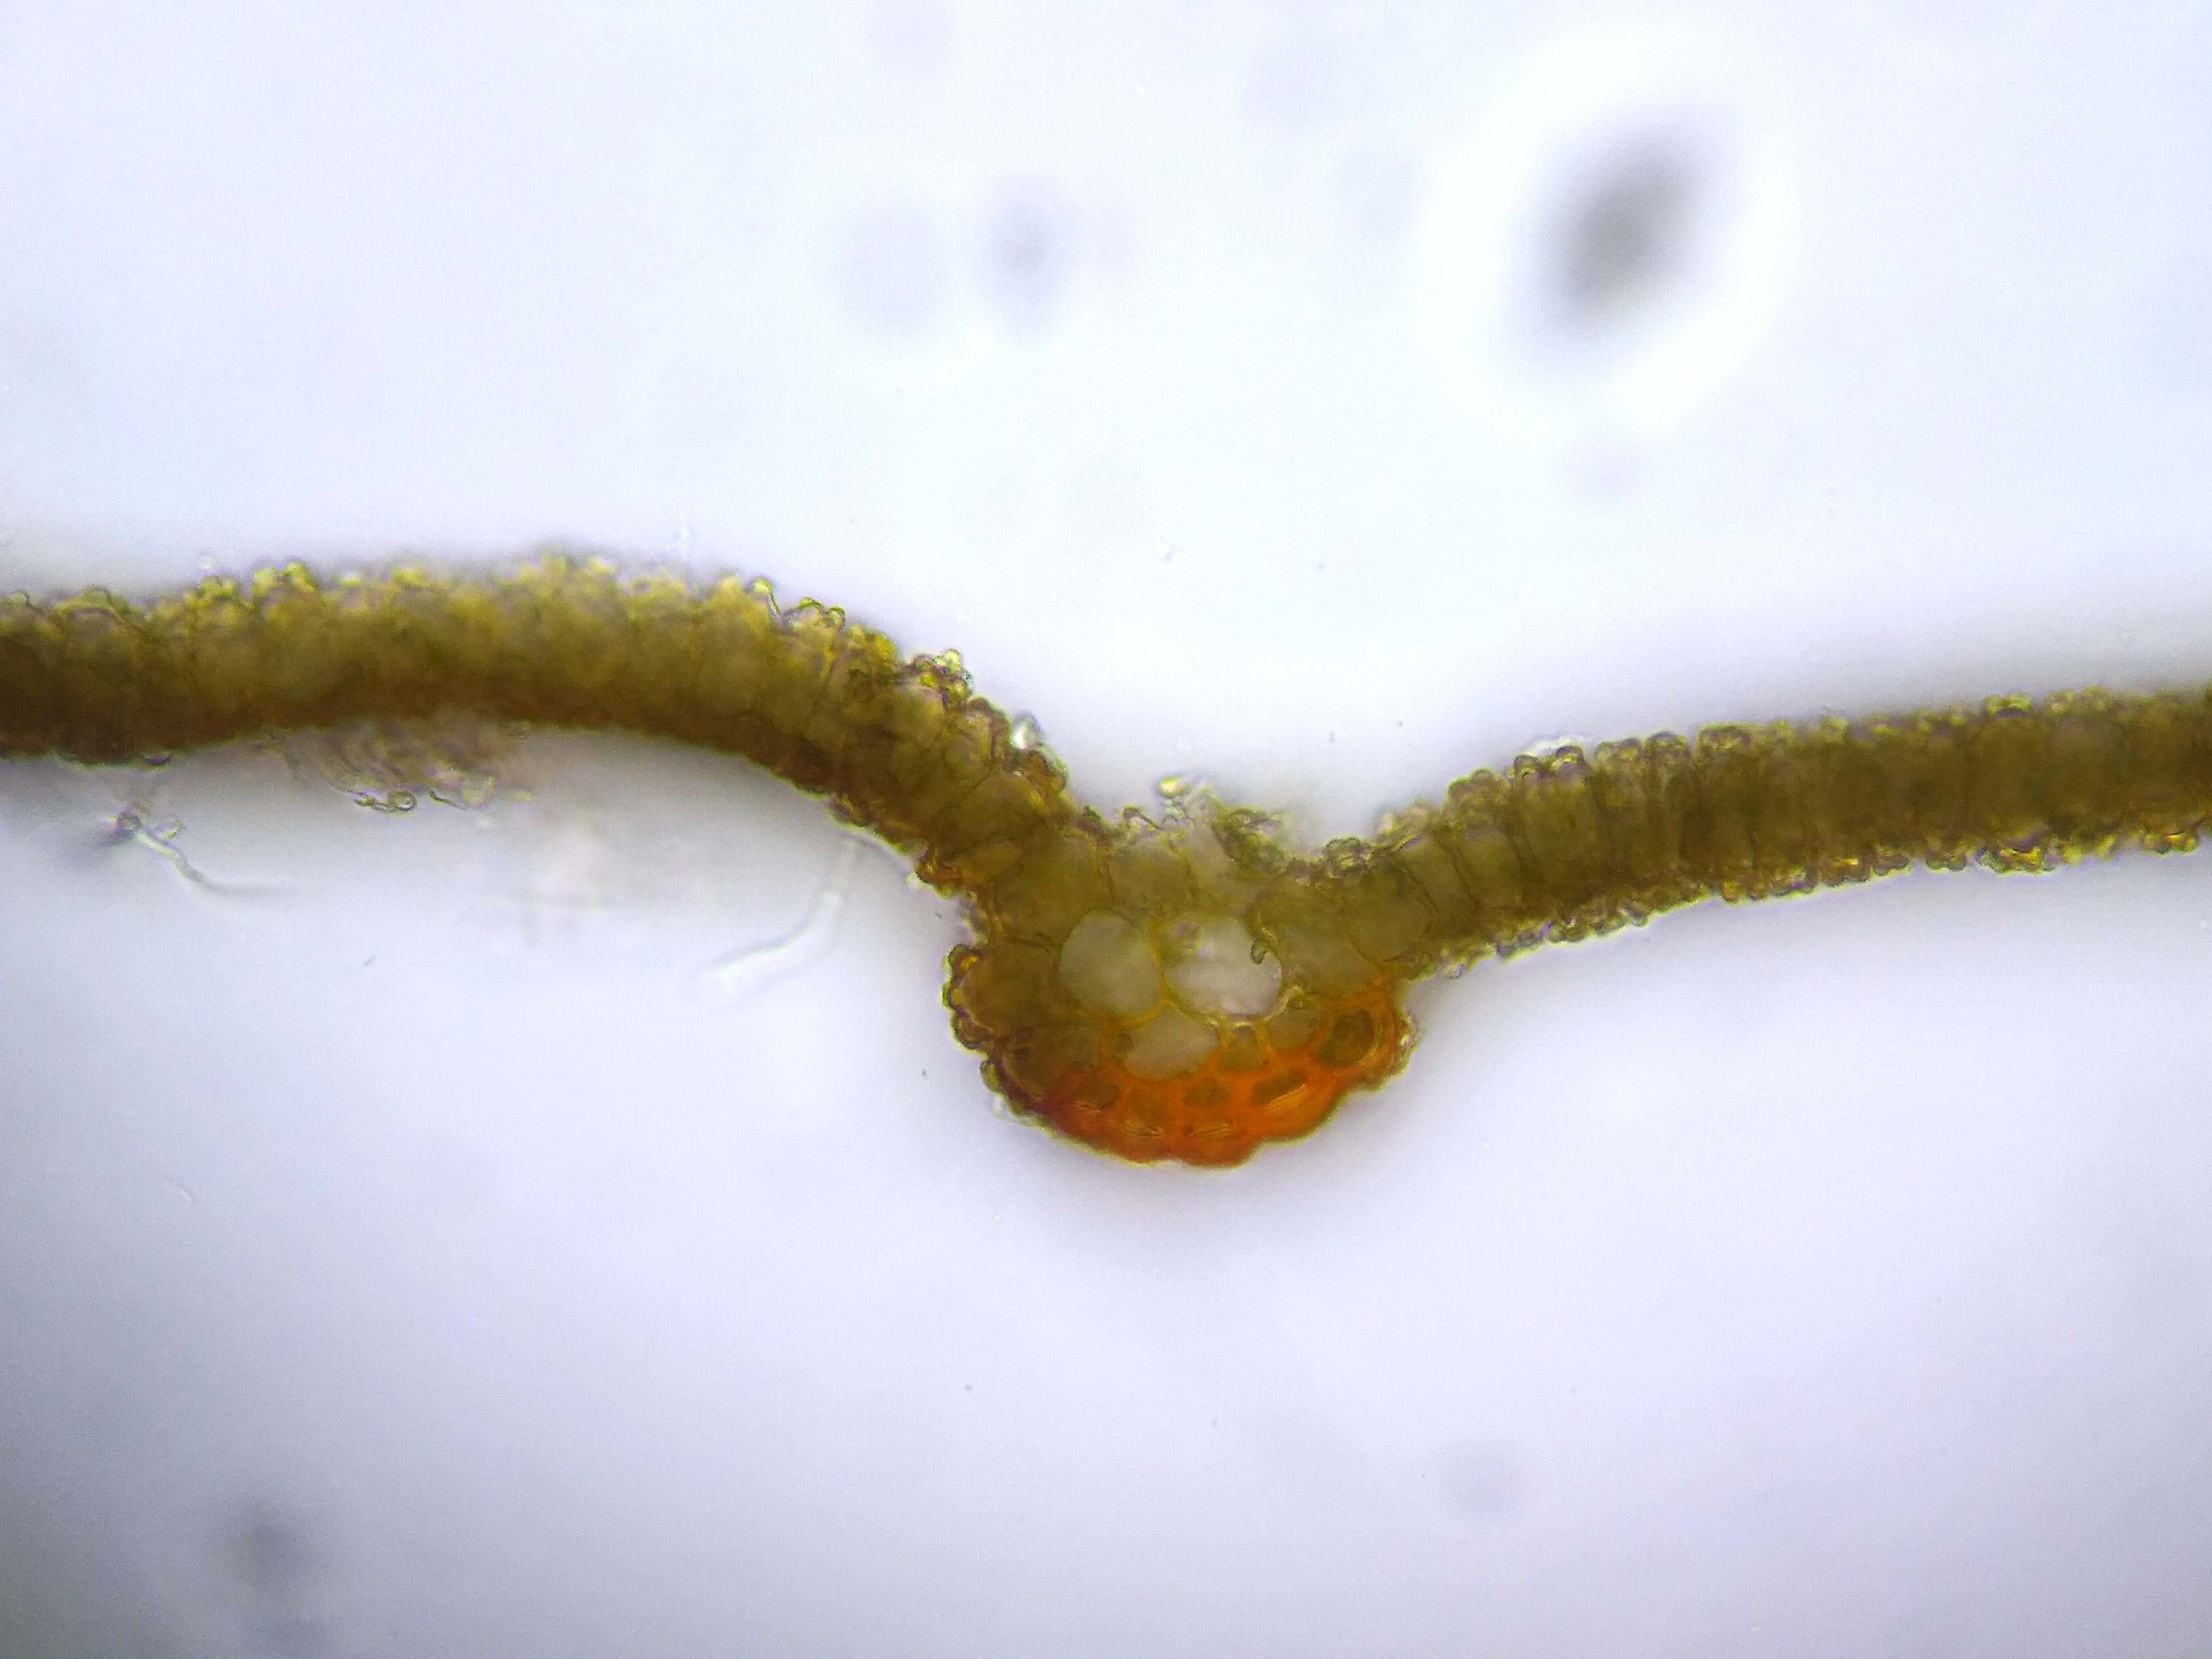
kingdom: Plantae
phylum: Bryophyta
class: Bryopsida
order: Pottiales
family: Pottiaceae
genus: Syntrichia
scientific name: Syntrichia virescens
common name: Grøn hårstjerne
